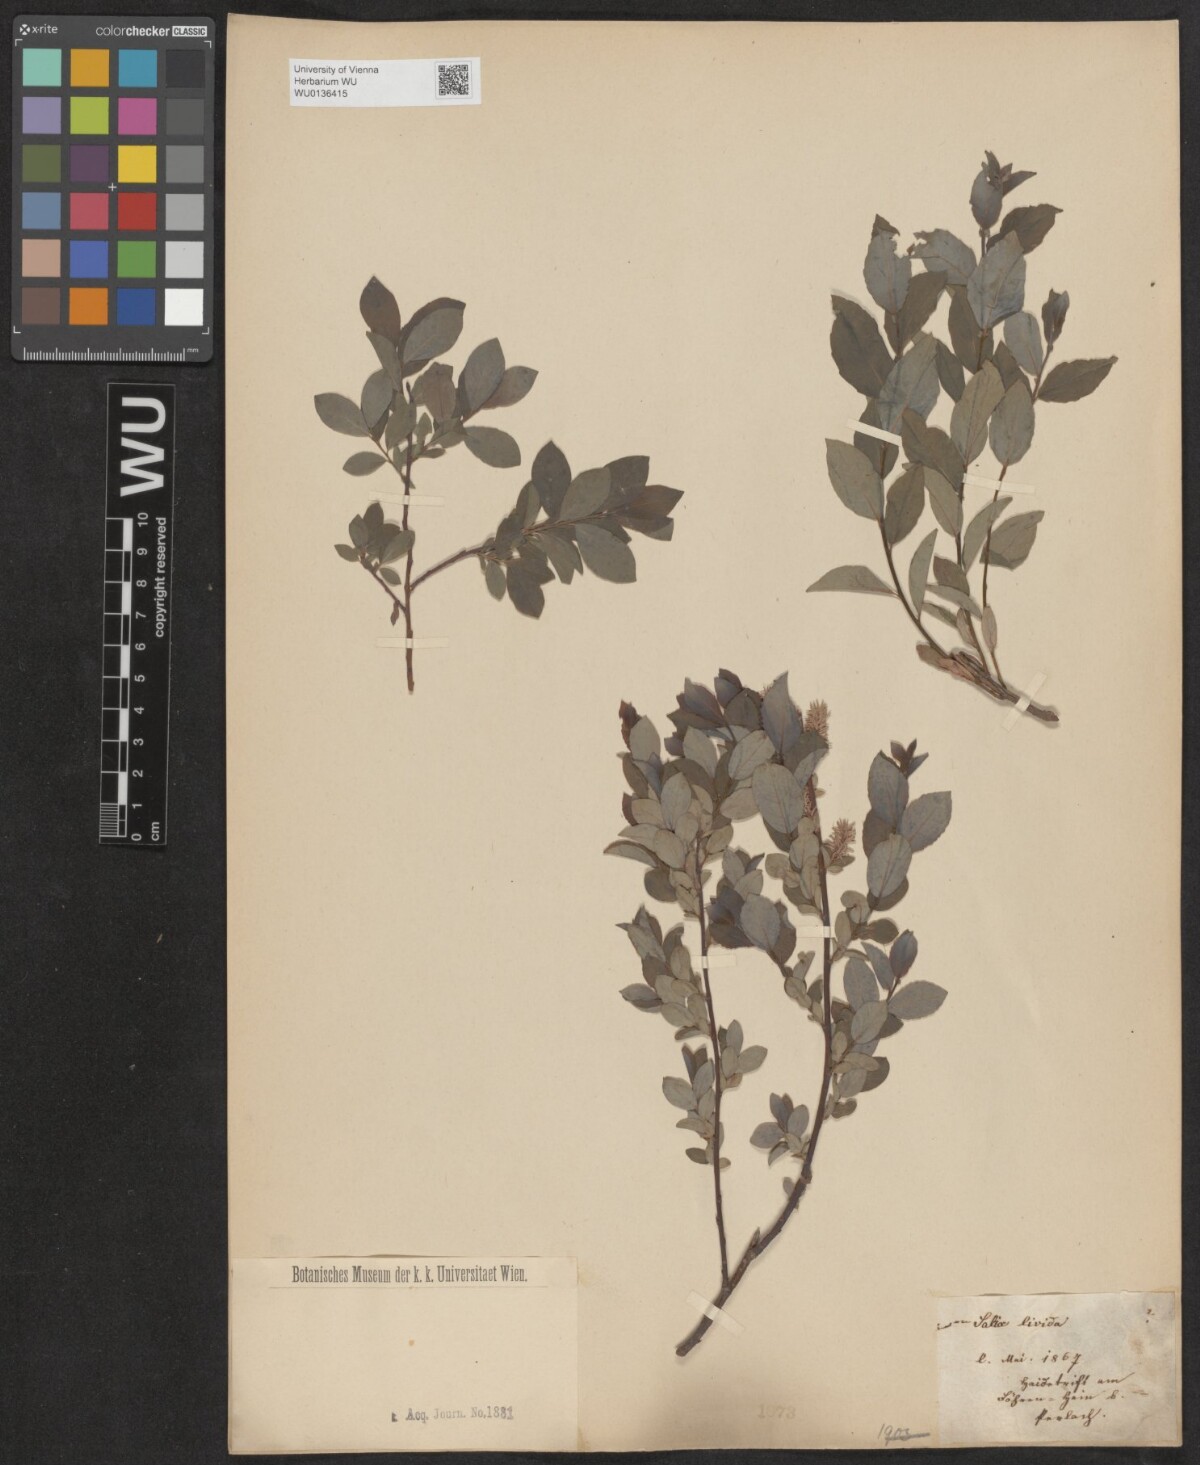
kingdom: Plantae
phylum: Tracheophyta
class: Magnoliopsida
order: Malpighiales
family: Salicaceae
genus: Salix
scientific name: Salix lanata
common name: Woolly willow
